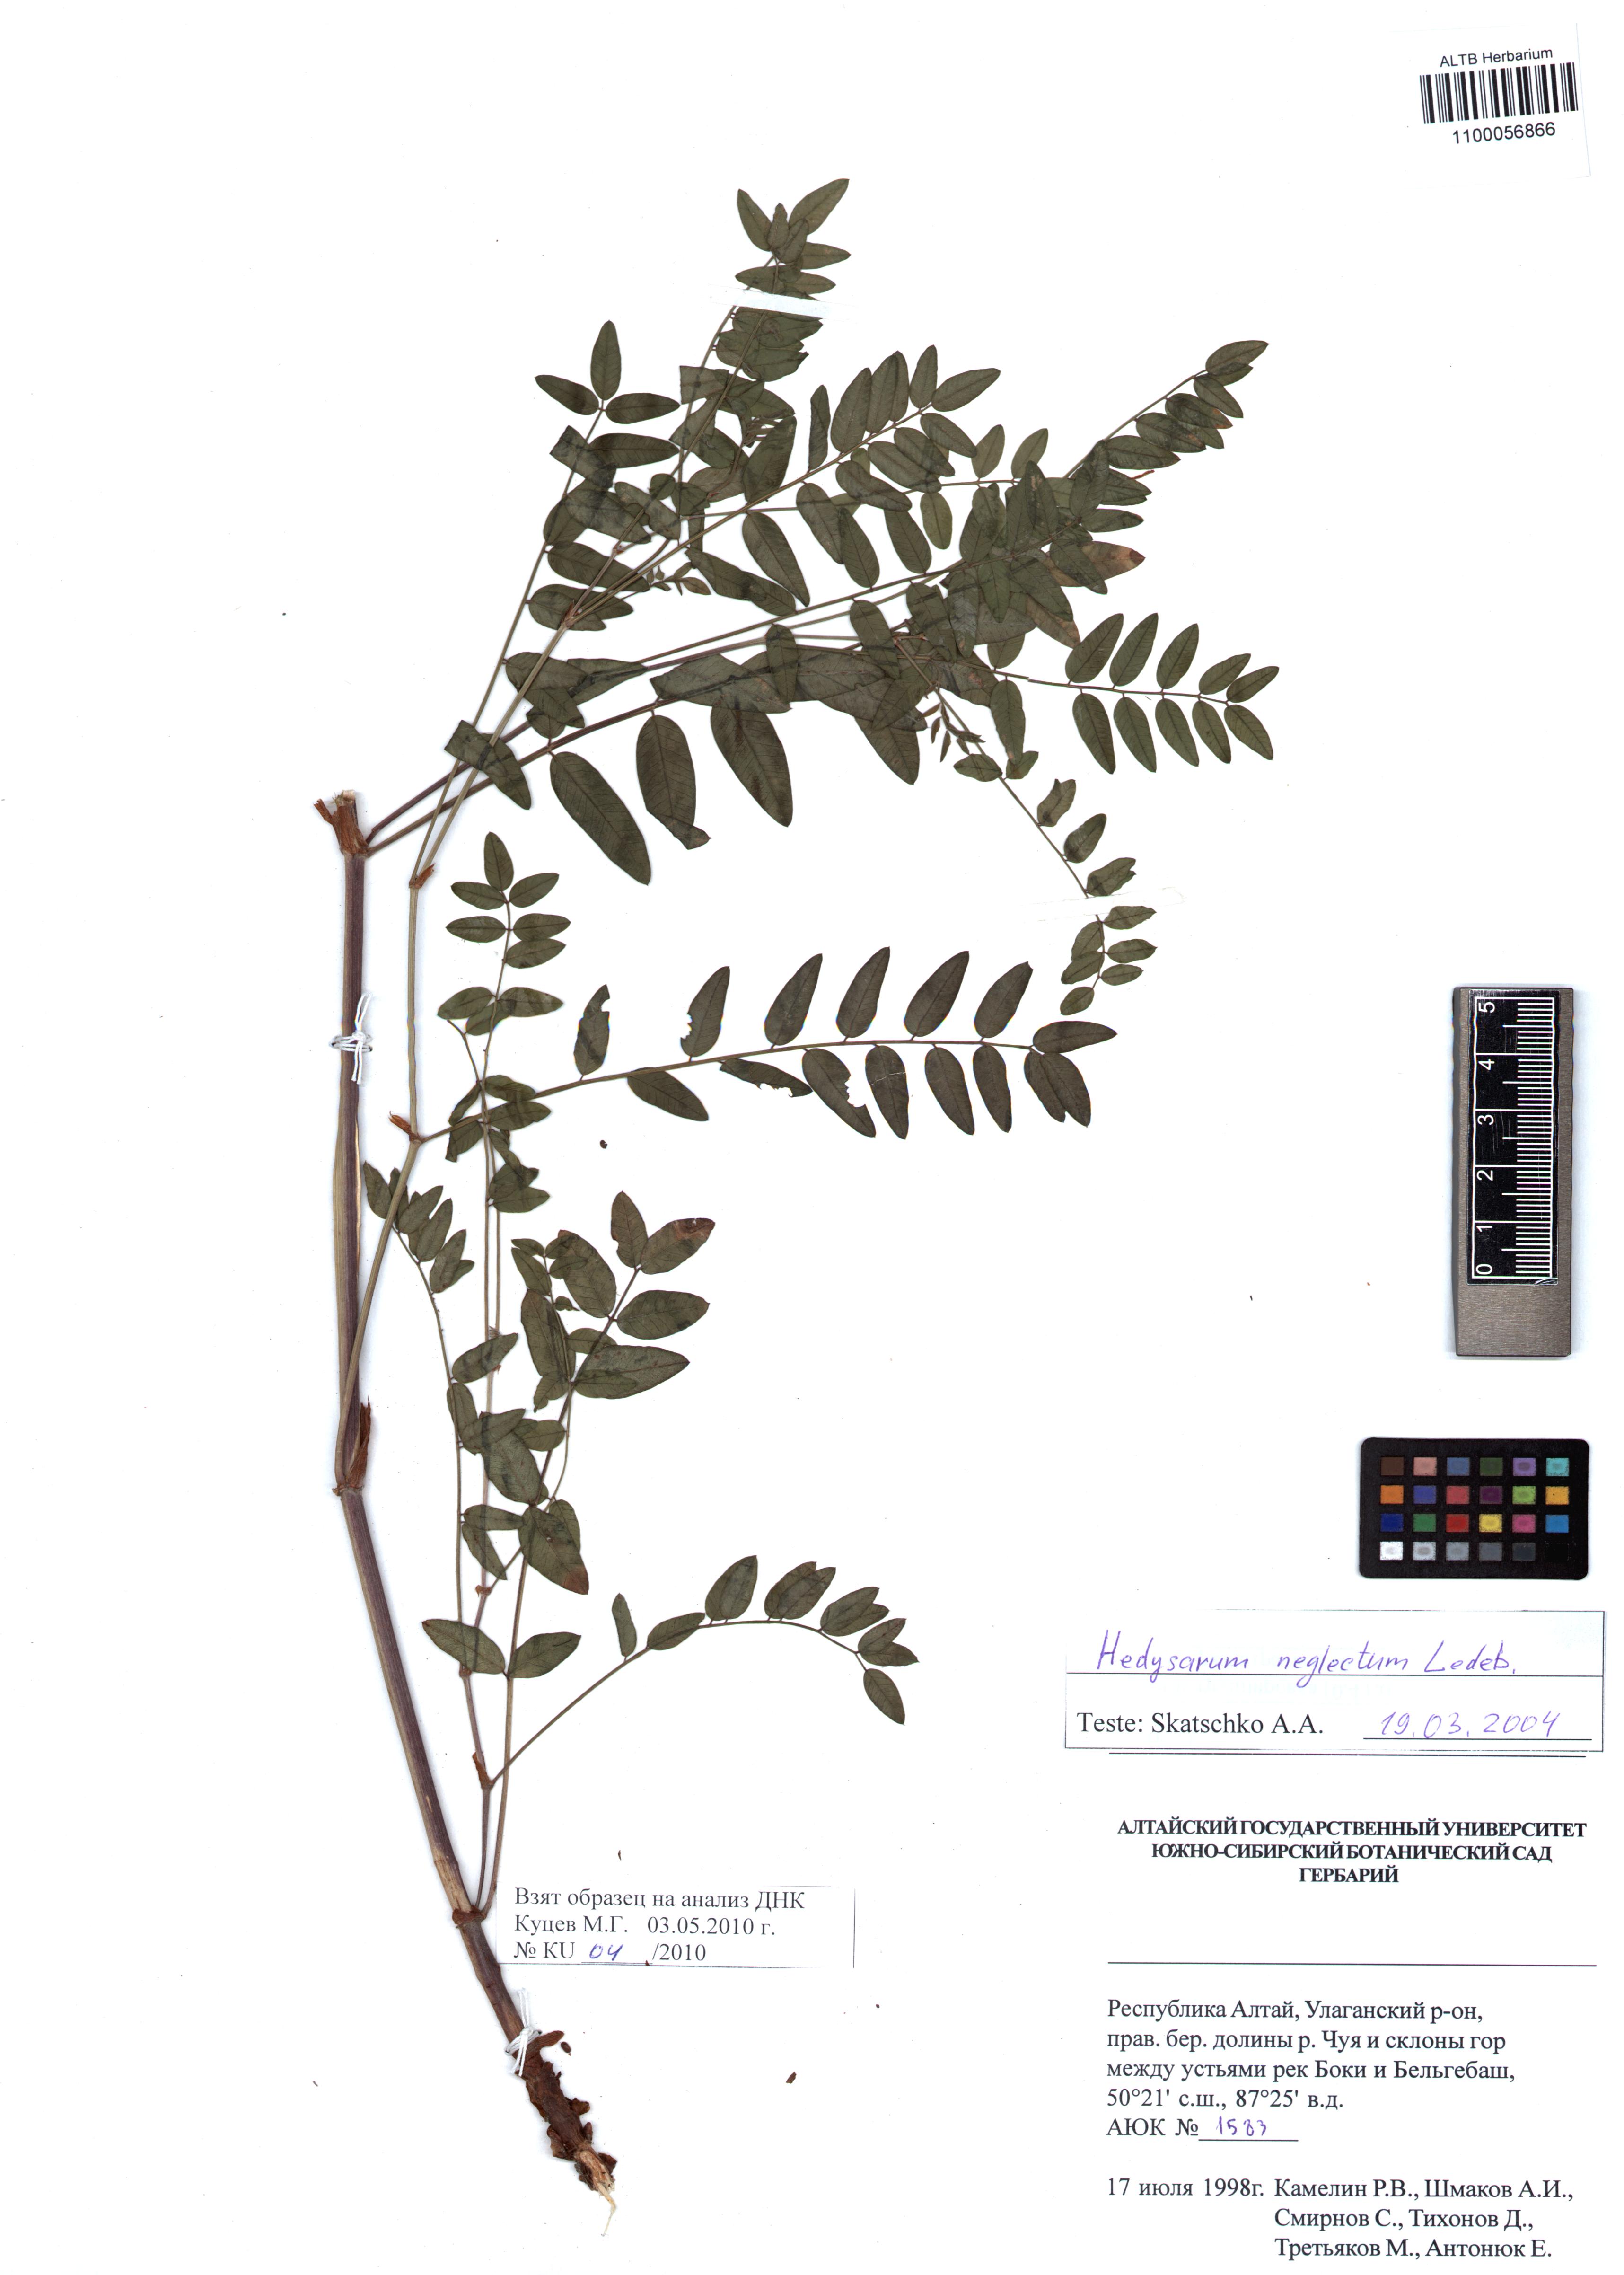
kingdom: Plantae
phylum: Tracheophyta
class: Magnoliopsida
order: Fabales
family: Fabaceae
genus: Hedysarum
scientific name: Hedysarum neglectum
